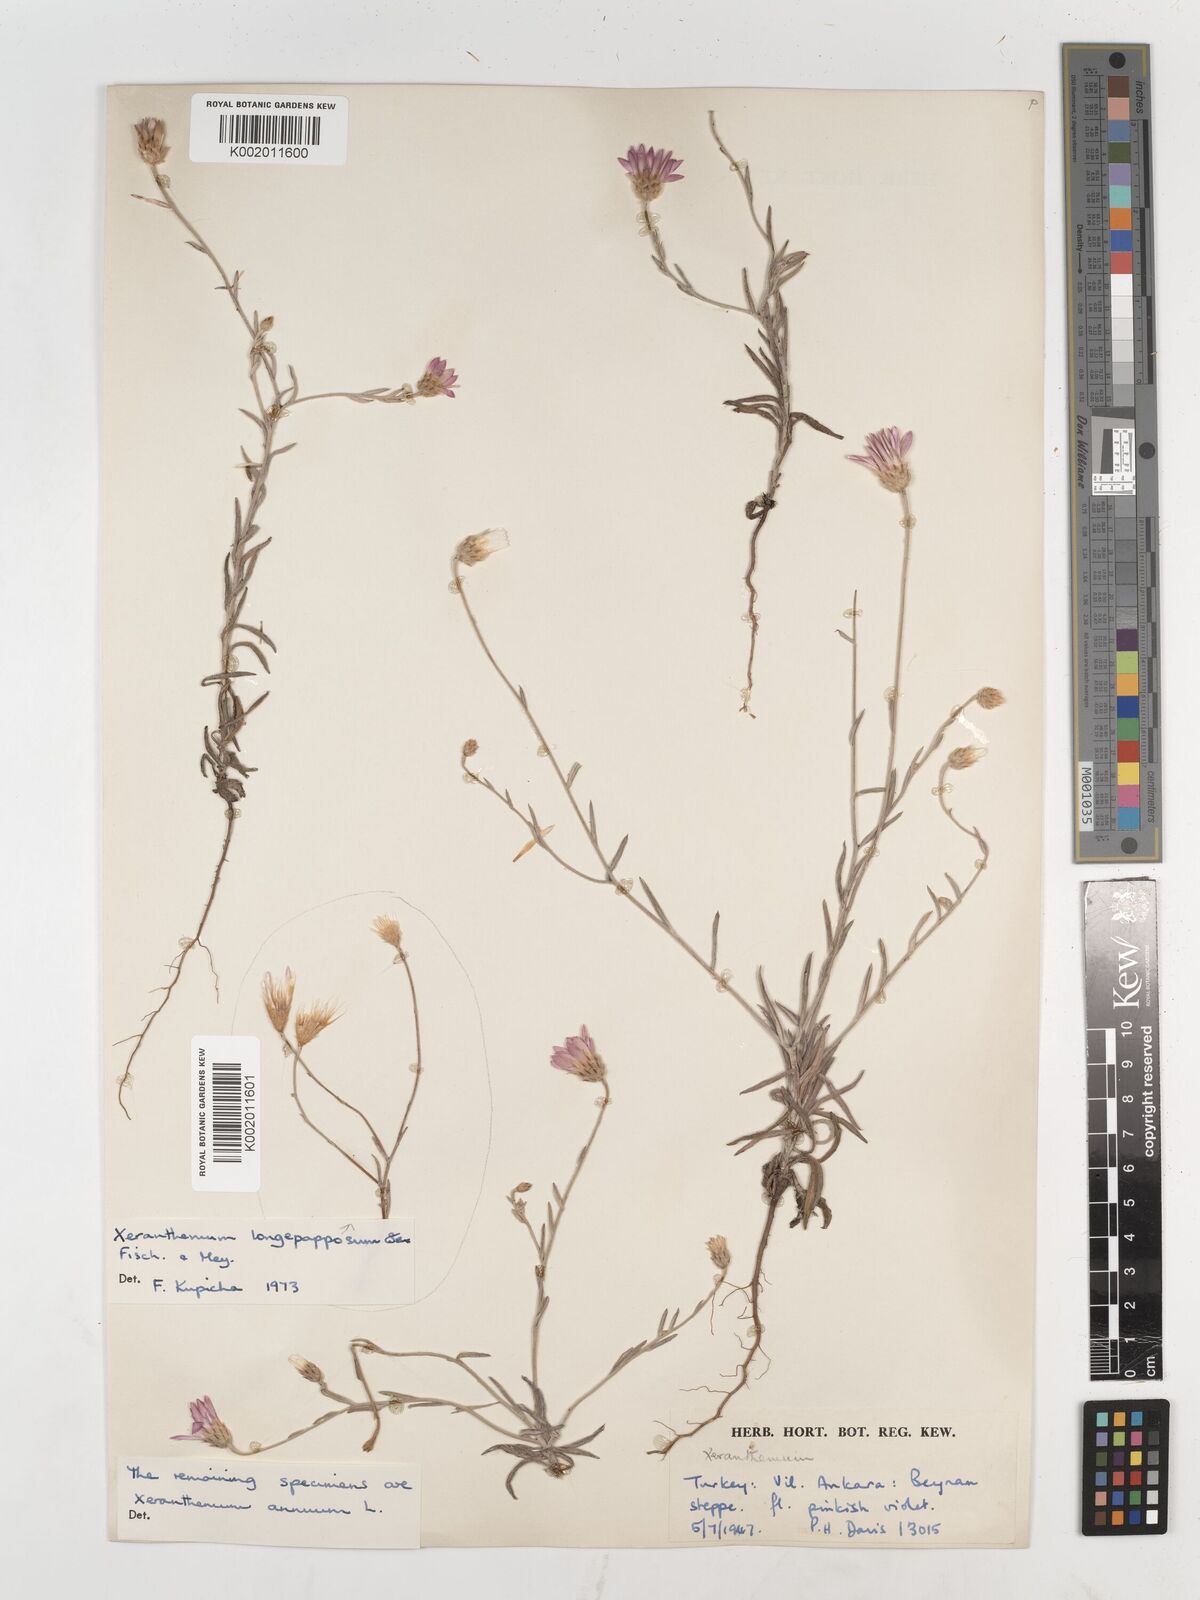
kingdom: Plantae
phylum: Tracheophyta
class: Magnoliopsida
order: Asterales
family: Asteraceae
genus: Xeranthemum
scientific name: Xeranthemum annuum
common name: Immortelle
